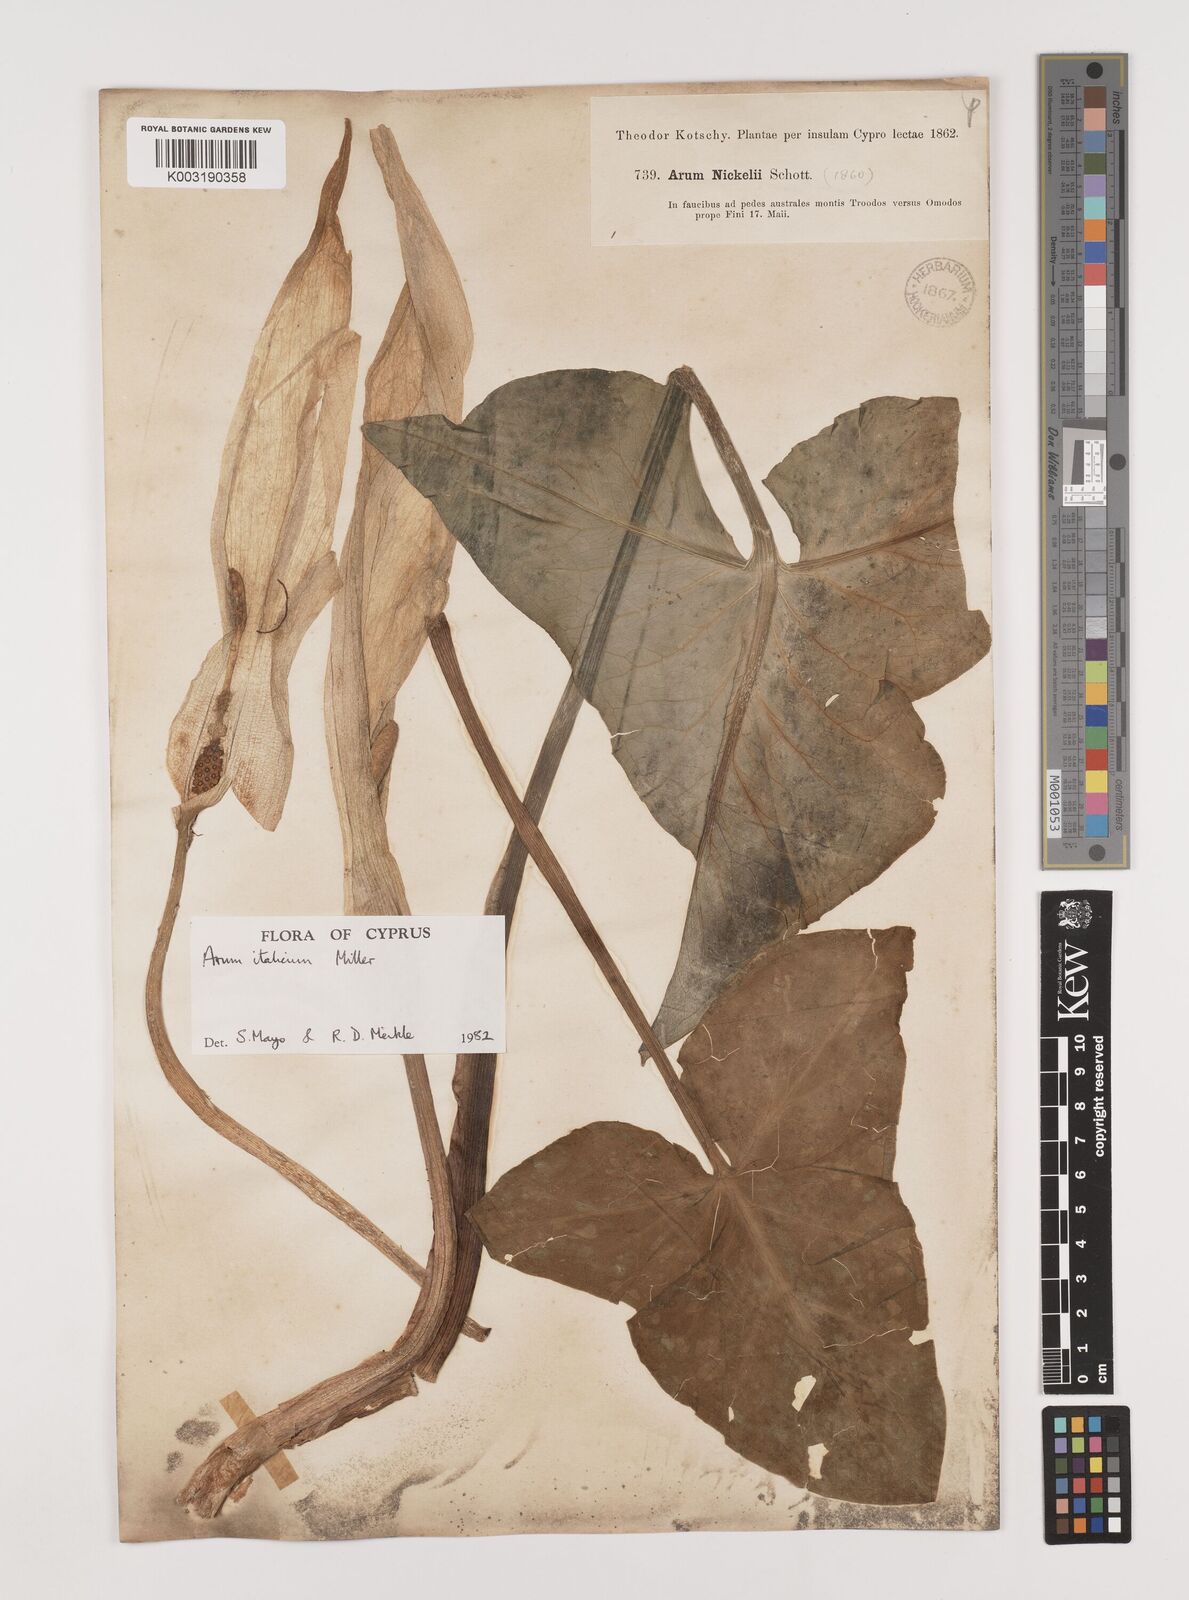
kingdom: Plantae
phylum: Tracheophyta
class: Liliopsida
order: Alismatales
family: Araceae
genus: Arum
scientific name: Arum italicum
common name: Italian lords-and-ladies
